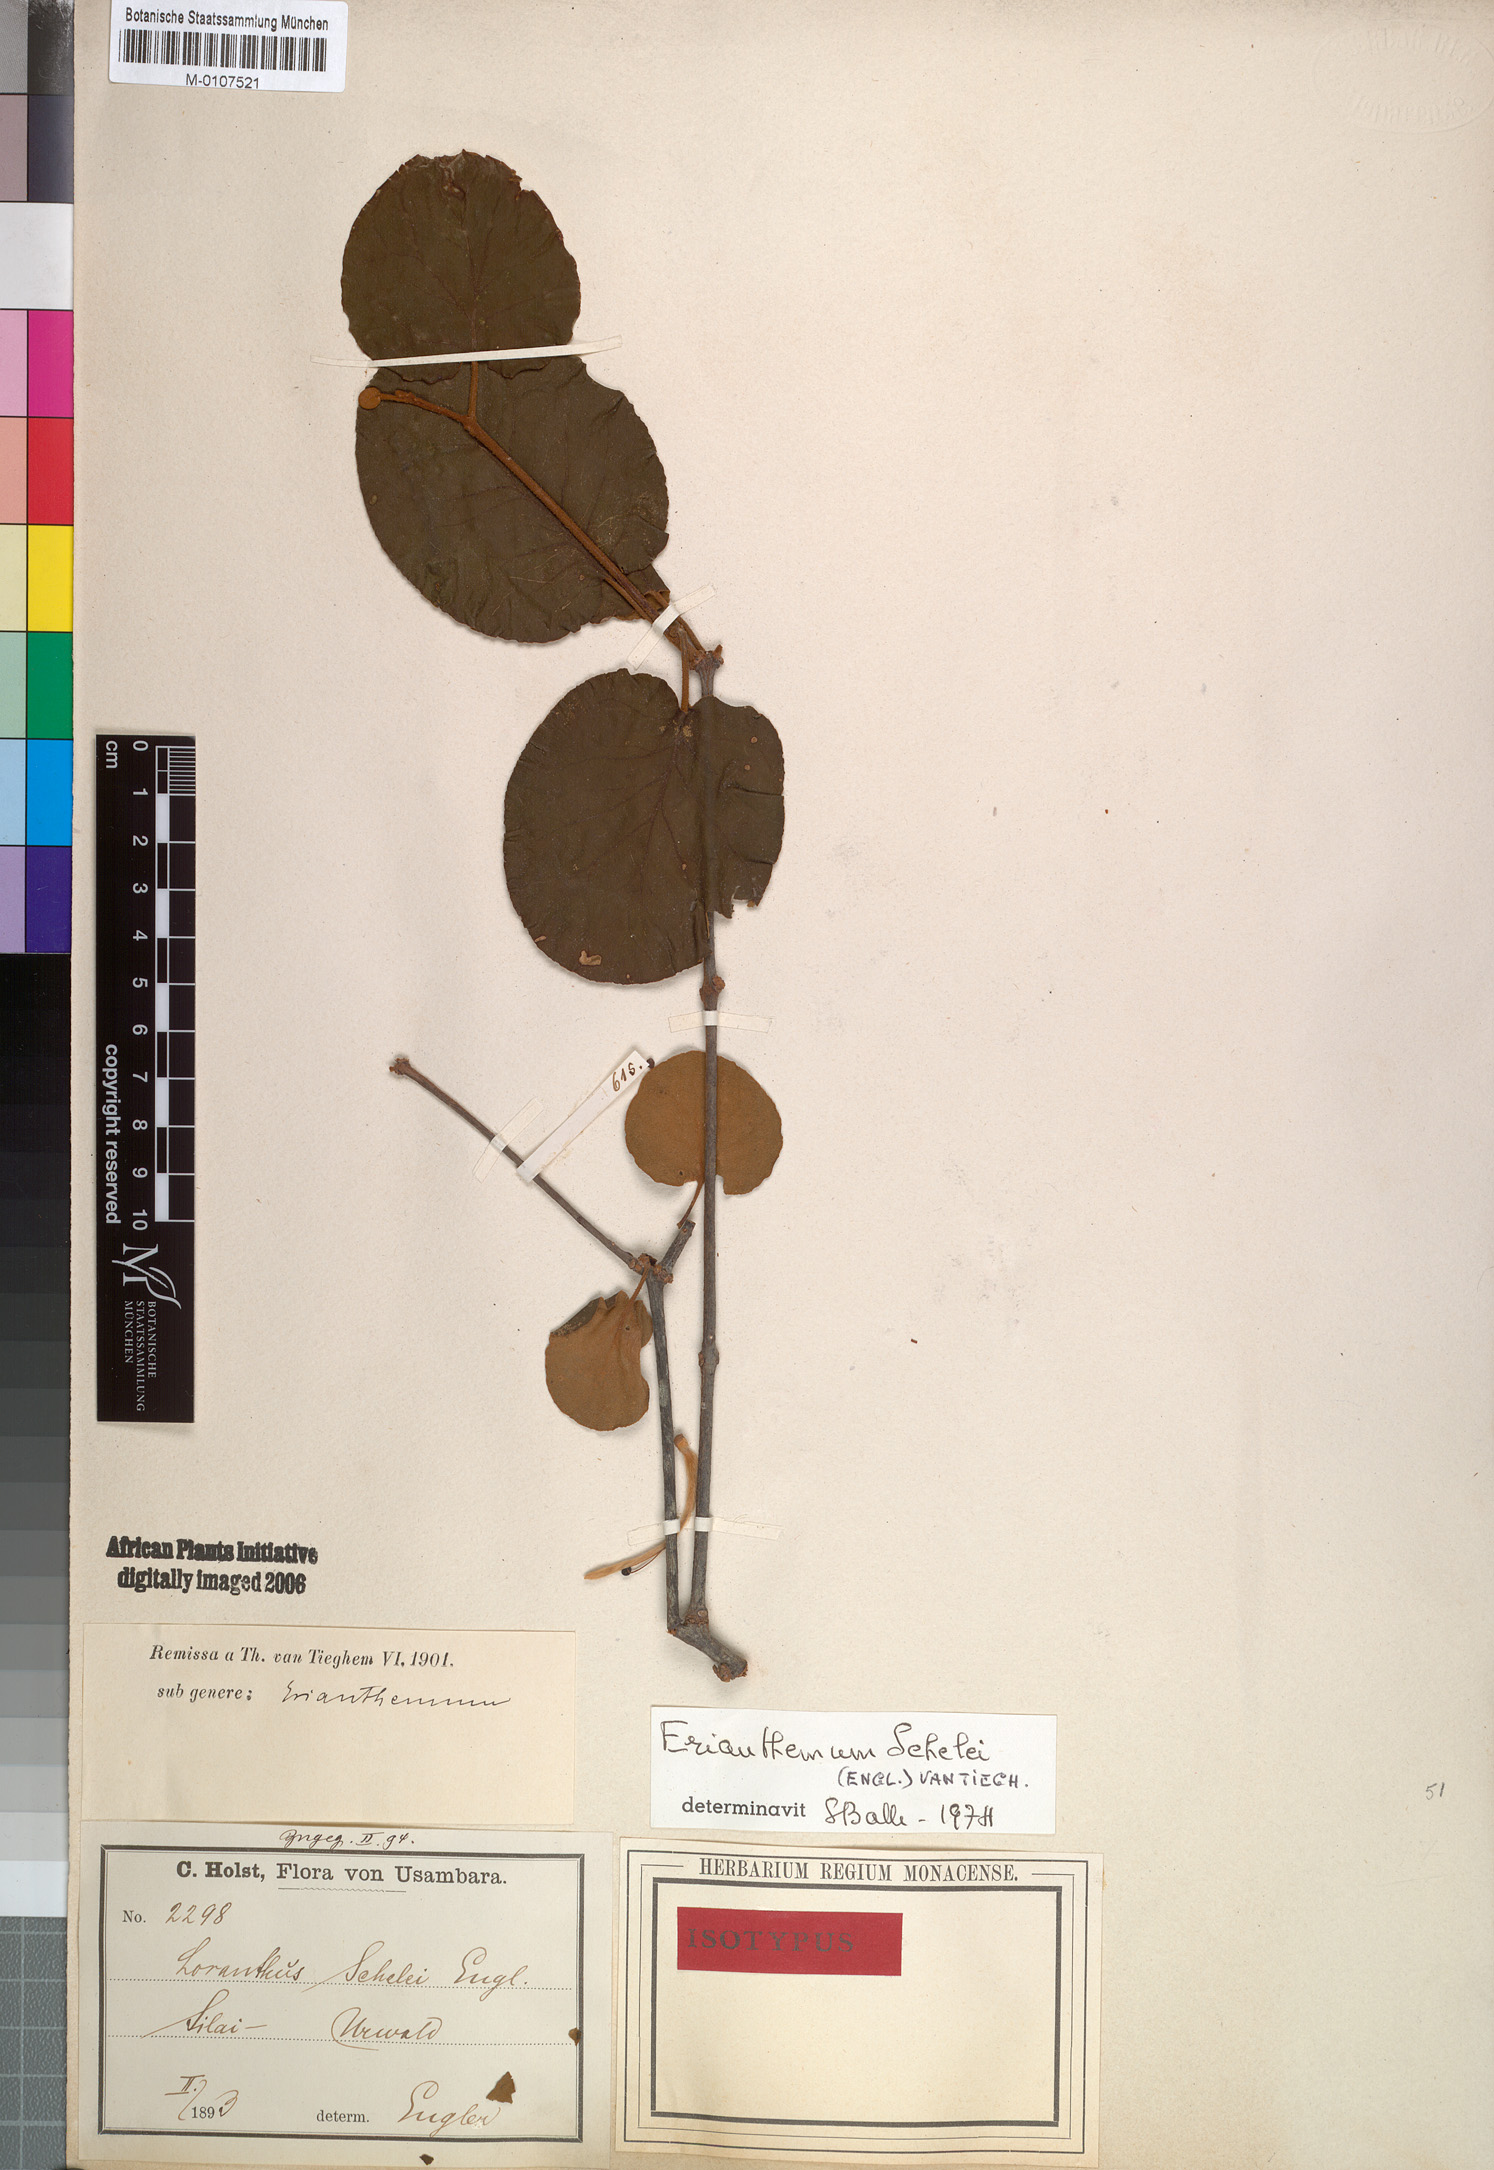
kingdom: Plantae
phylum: Tracheophyta
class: Magnoliopsida
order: Santalales
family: Loranthaceae
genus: Erianthemum
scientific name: Erianthemum schelei
